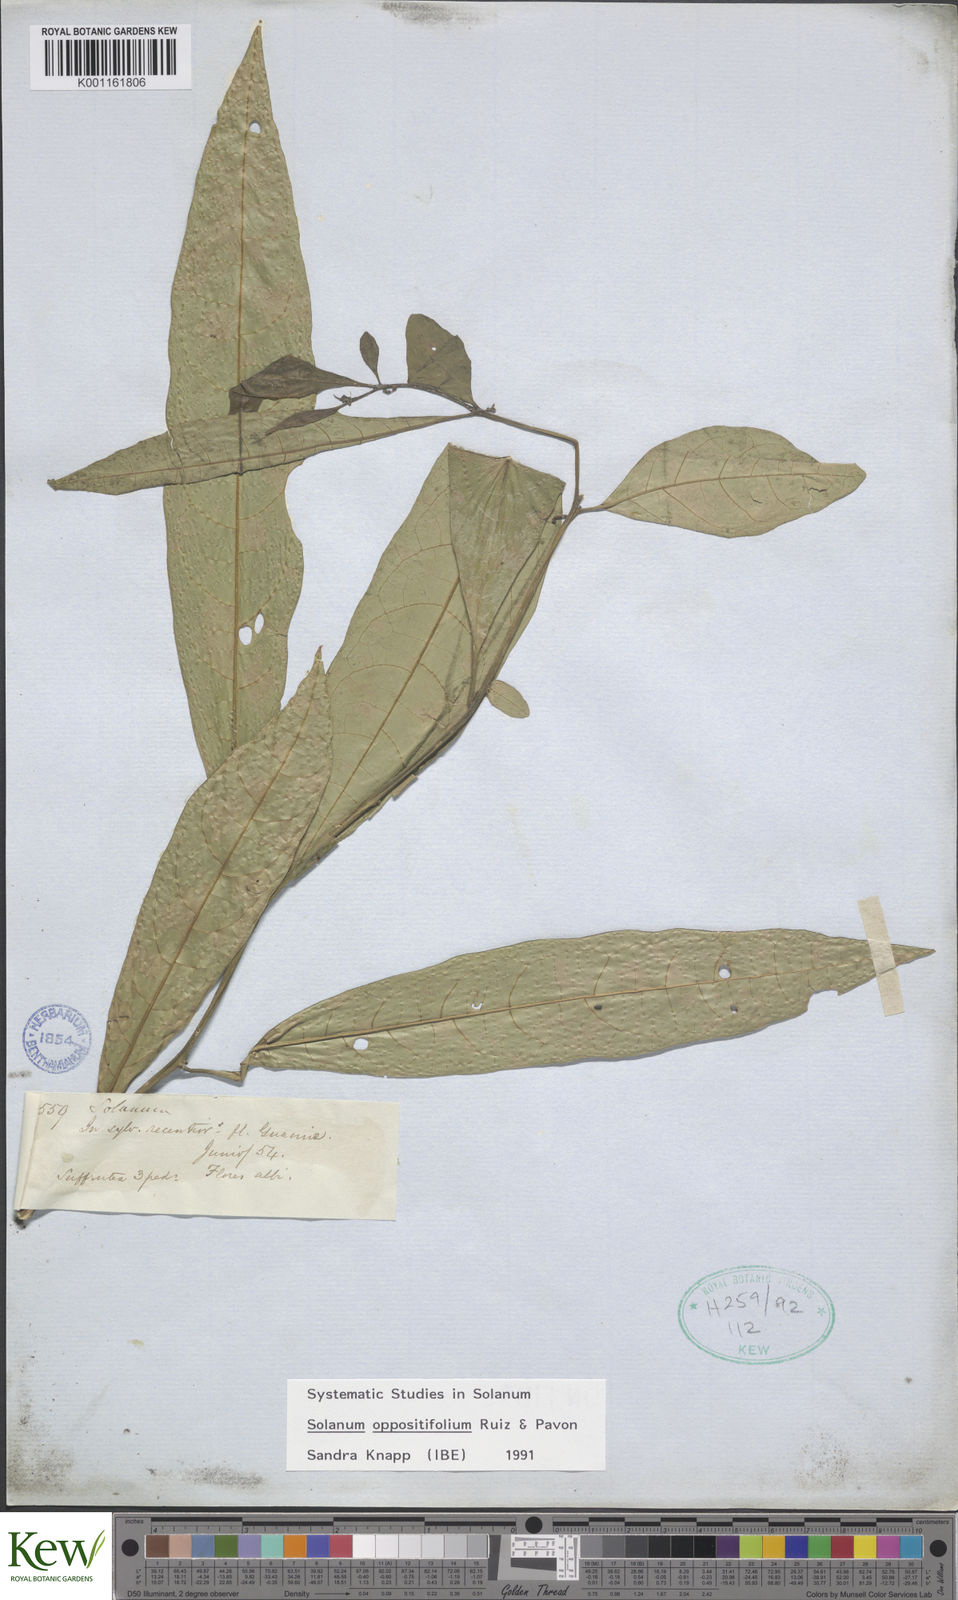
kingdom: Plantae
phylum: Tracheophyta
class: Magnoliopsida
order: Solanales
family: Solanaceae
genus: Solanum
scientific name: Solanum oppositifolium
